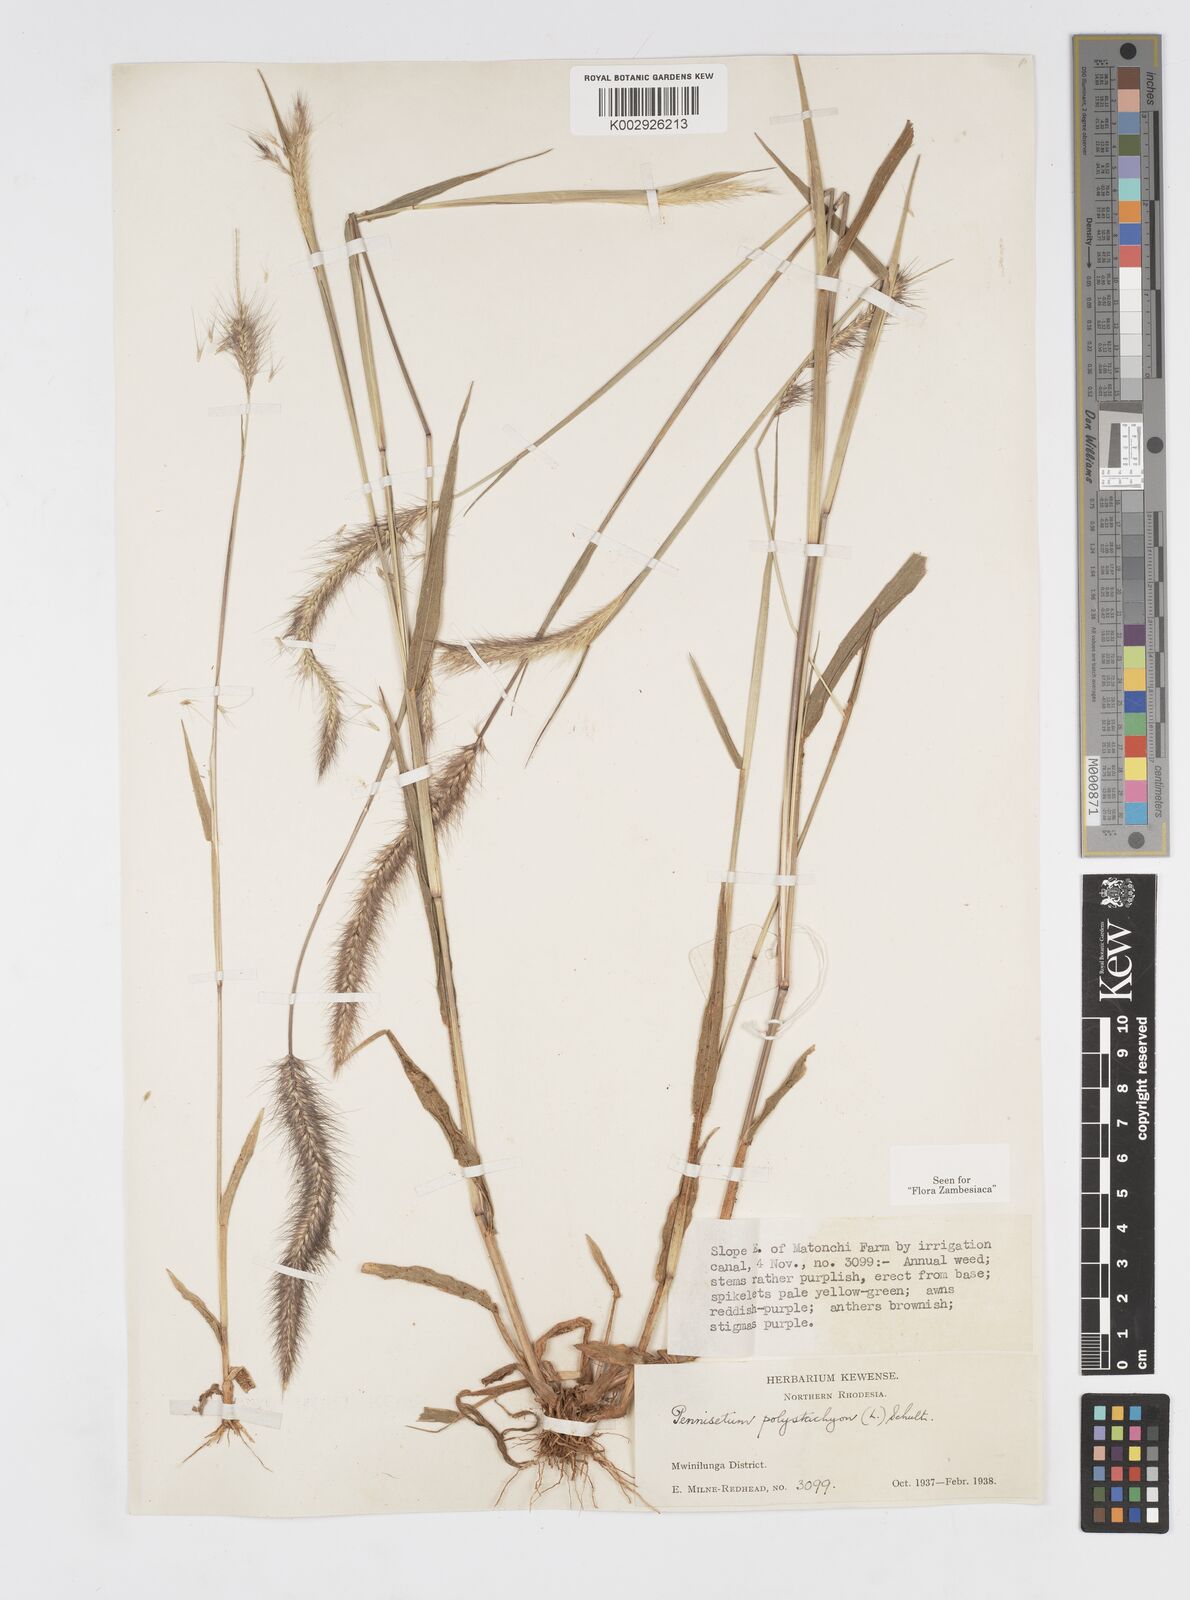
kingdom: Plantae
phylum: Tracheophyta
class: Liliopsida
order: Poales
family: Poaceae
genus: Setaria
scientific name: Setaria parviflora
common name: Knotroot bristle-grass
